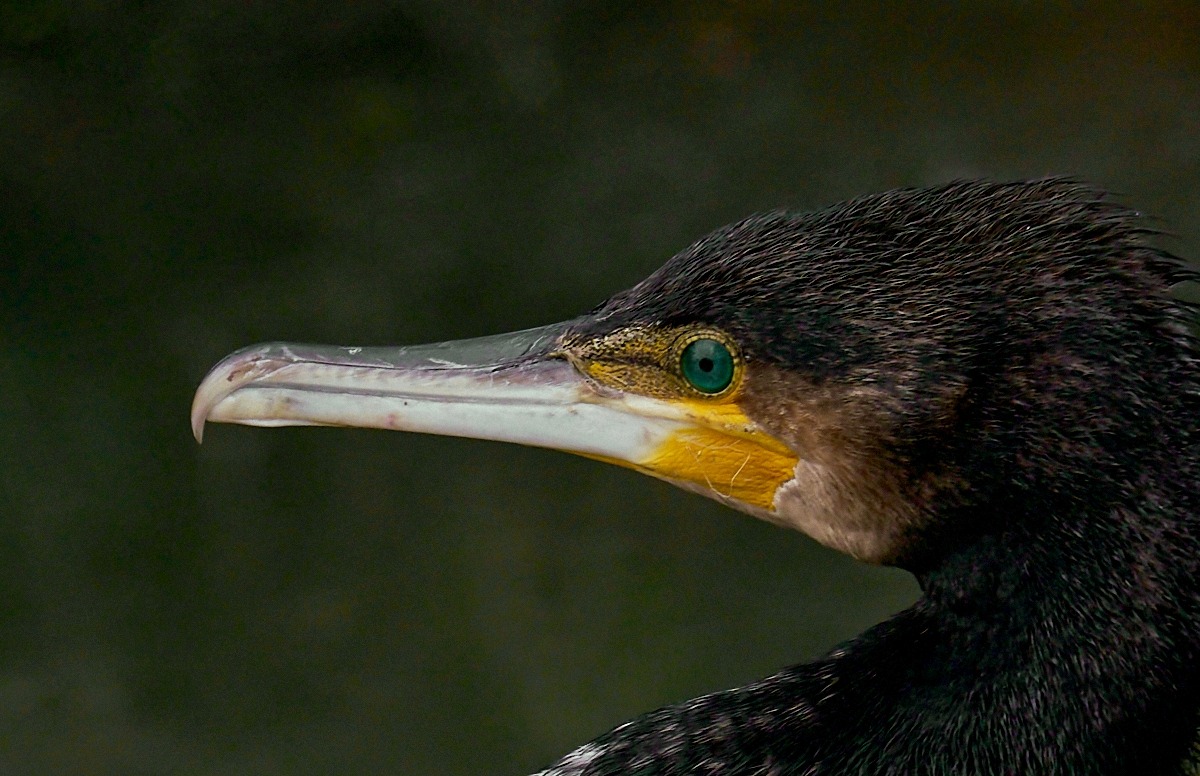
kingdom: Animalia
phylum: Chordata
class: Aves
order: Suliformes
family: Phalacrocoracidae
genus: Phalacrocorax
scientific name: Phalacrocorax carbo
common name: Skarv
